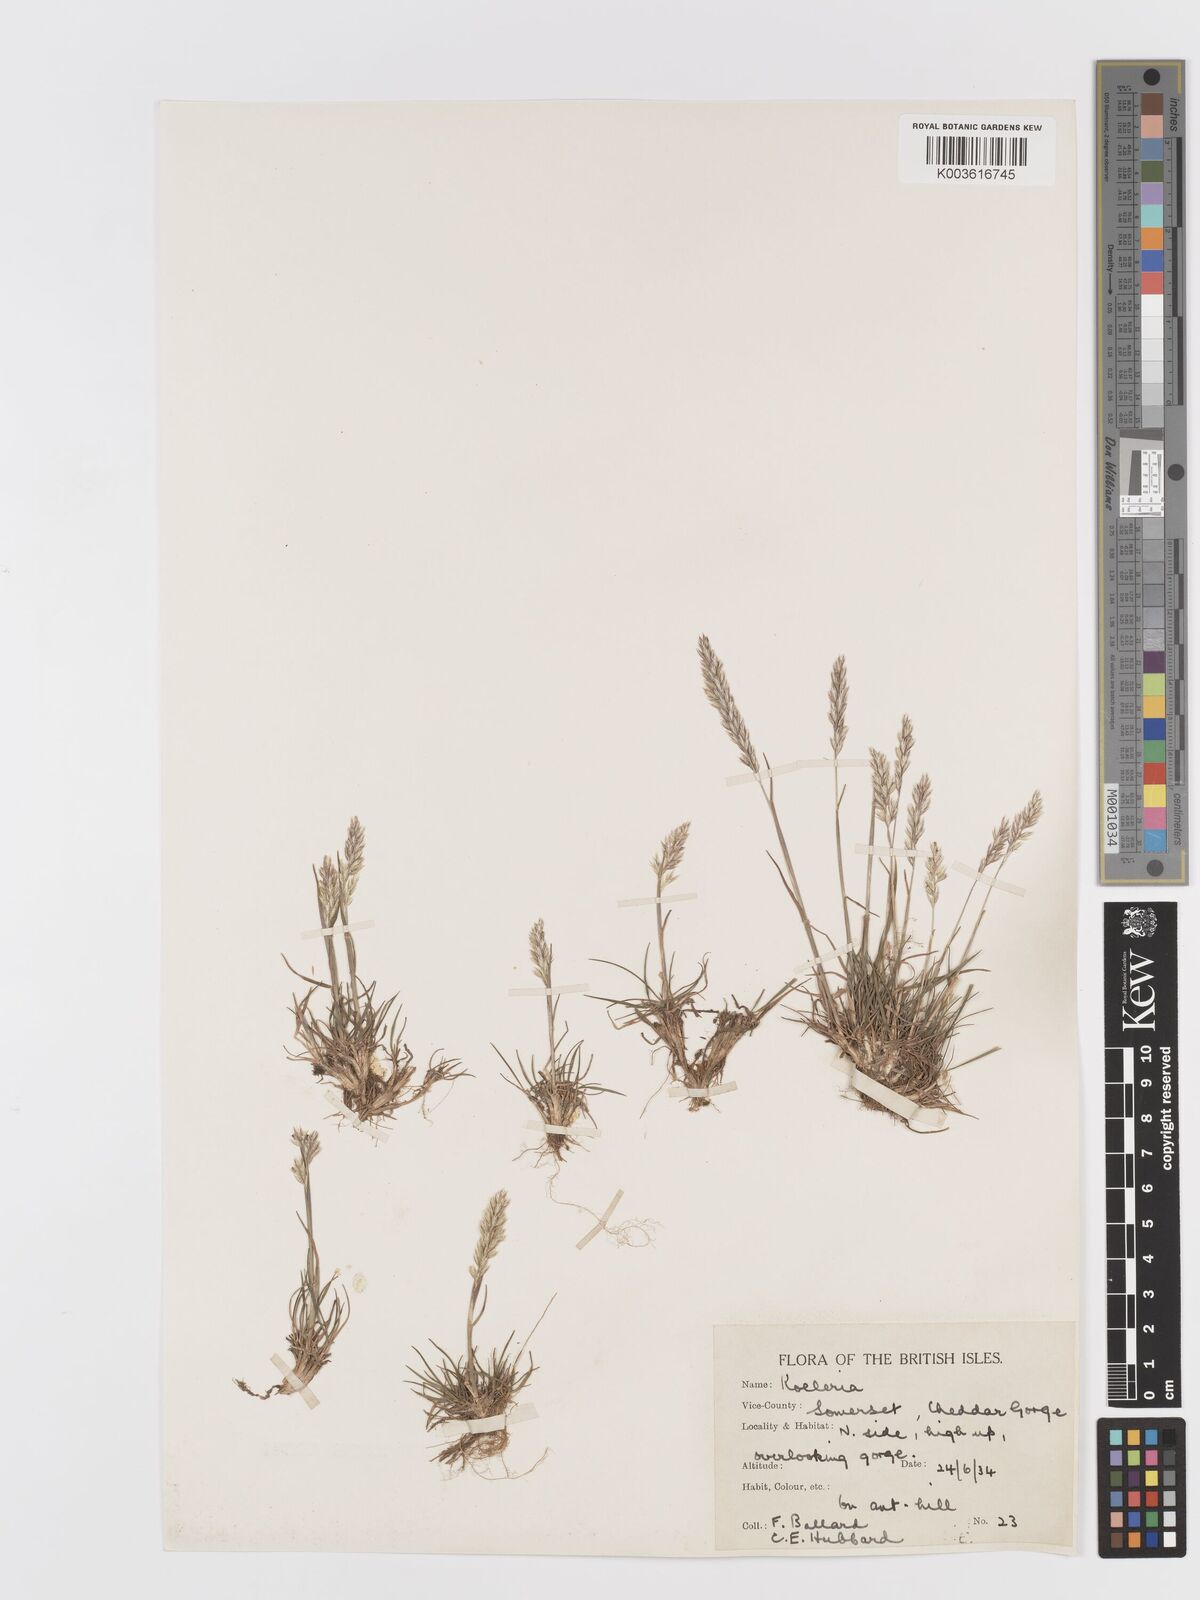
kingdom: Plantae
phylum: Tracheophyta
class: Liliopsida
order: Poales
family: Poaceae
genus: Koeleria
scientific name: Koeleria
